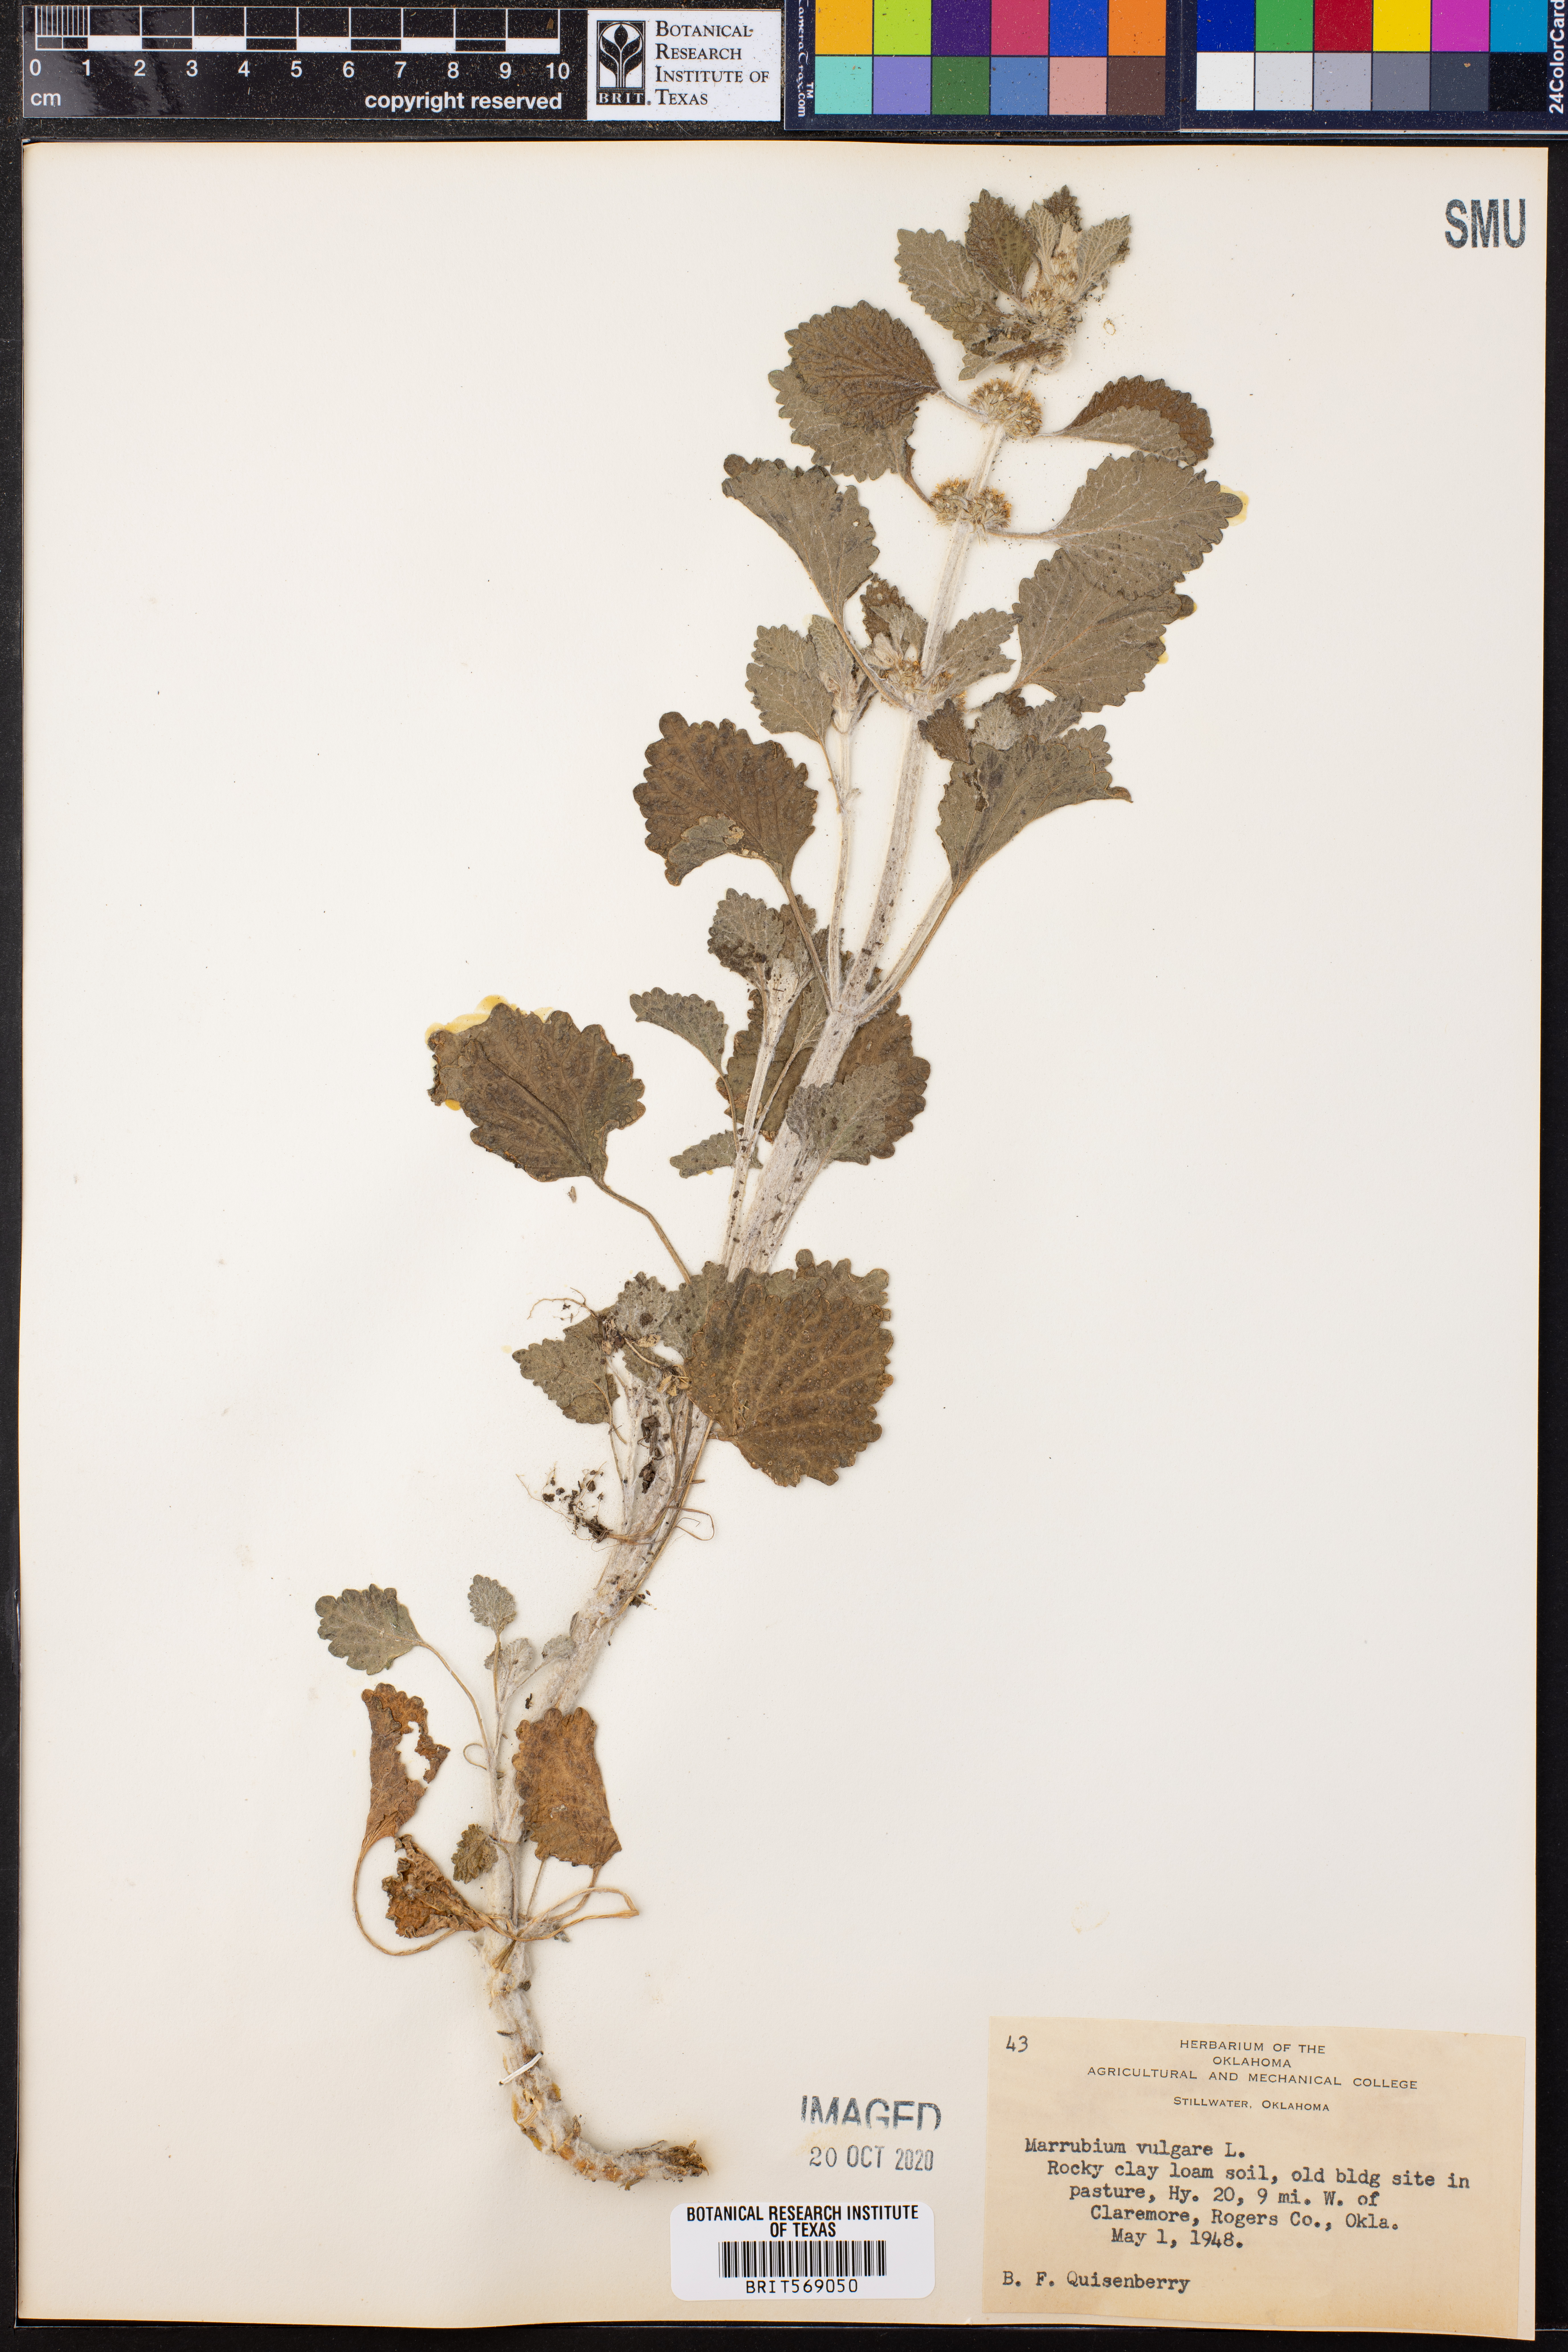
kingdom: Plantae
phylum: Tracheophyta
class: Magnoliopsida
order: Lamiales
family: Lamiaceae
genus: Marrubium
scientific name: Marrubium vulgare
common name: Horehound
